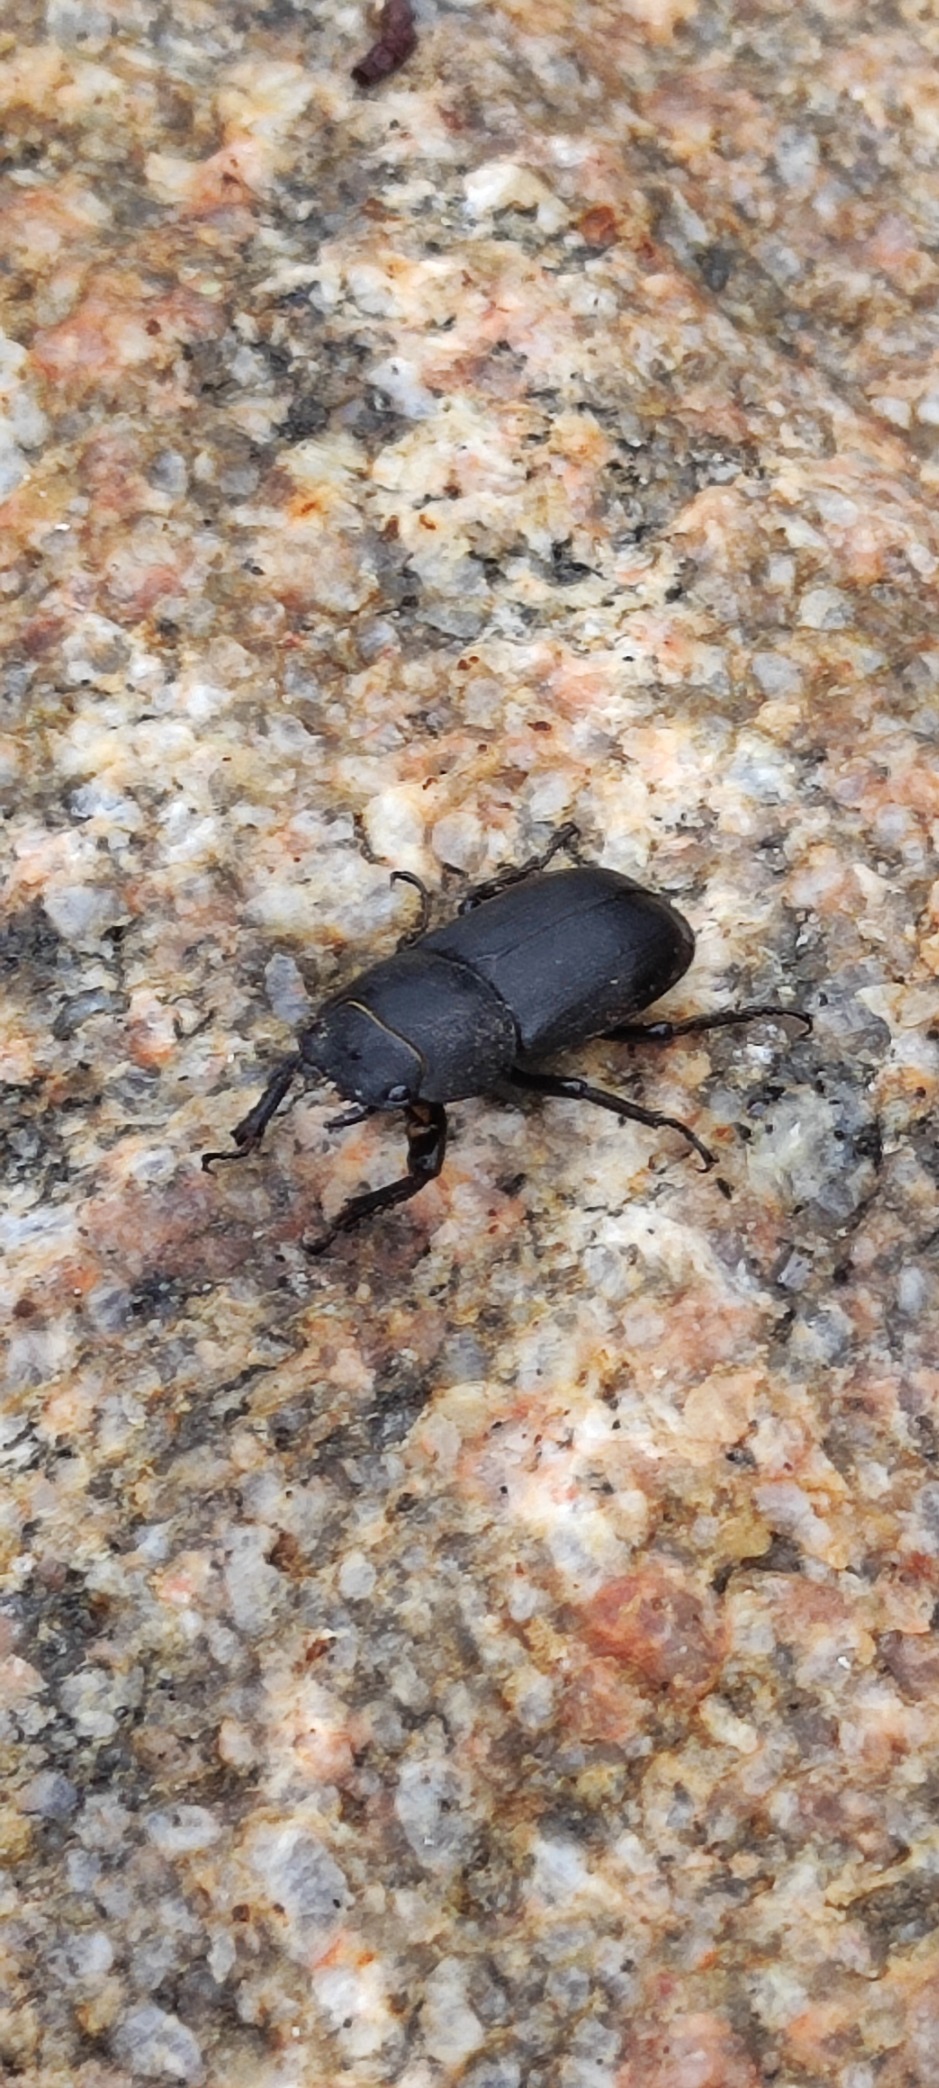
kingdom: Animalia
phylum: Arthropoda
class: Insecta
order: Coleoptera
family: Lucanidae
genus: Dorcus
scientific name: Dorcus parallelipipedus
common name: Bøghjort
